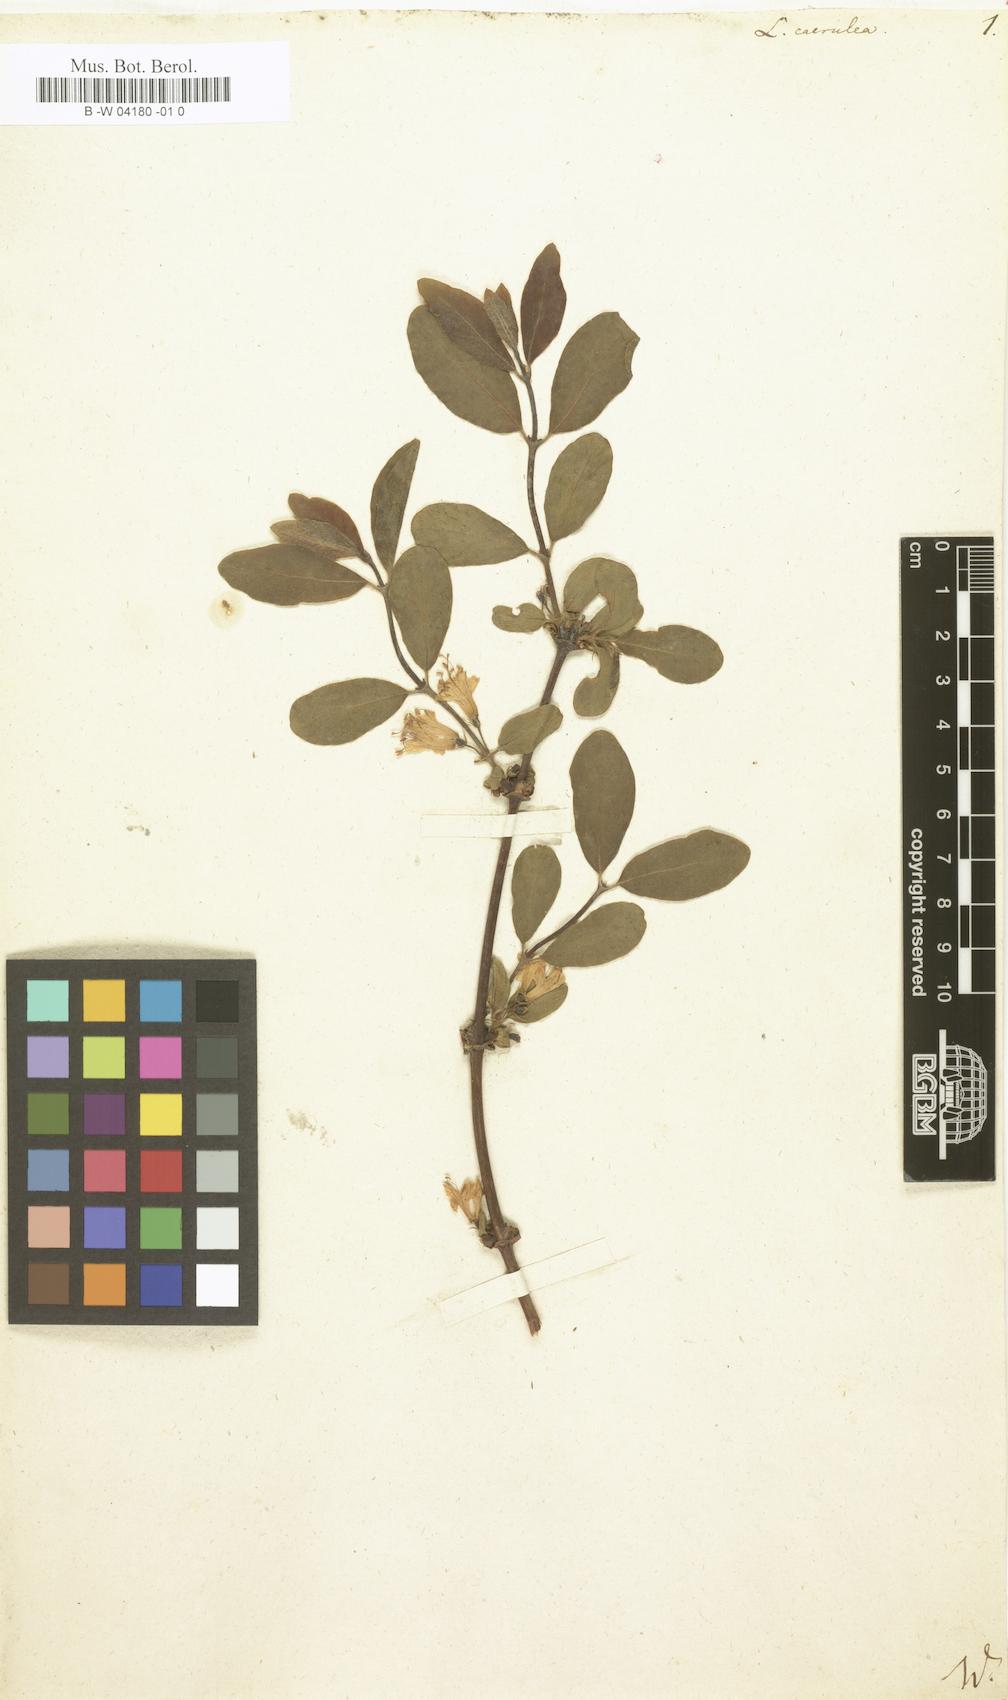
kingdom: Plantae
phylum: Tracheophyta
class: Magnoliopsida
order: Dipsacales
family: Caprifoliaceae
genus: Lonicera
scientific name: Lonicera caerulea
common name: Blue honeysuckle
